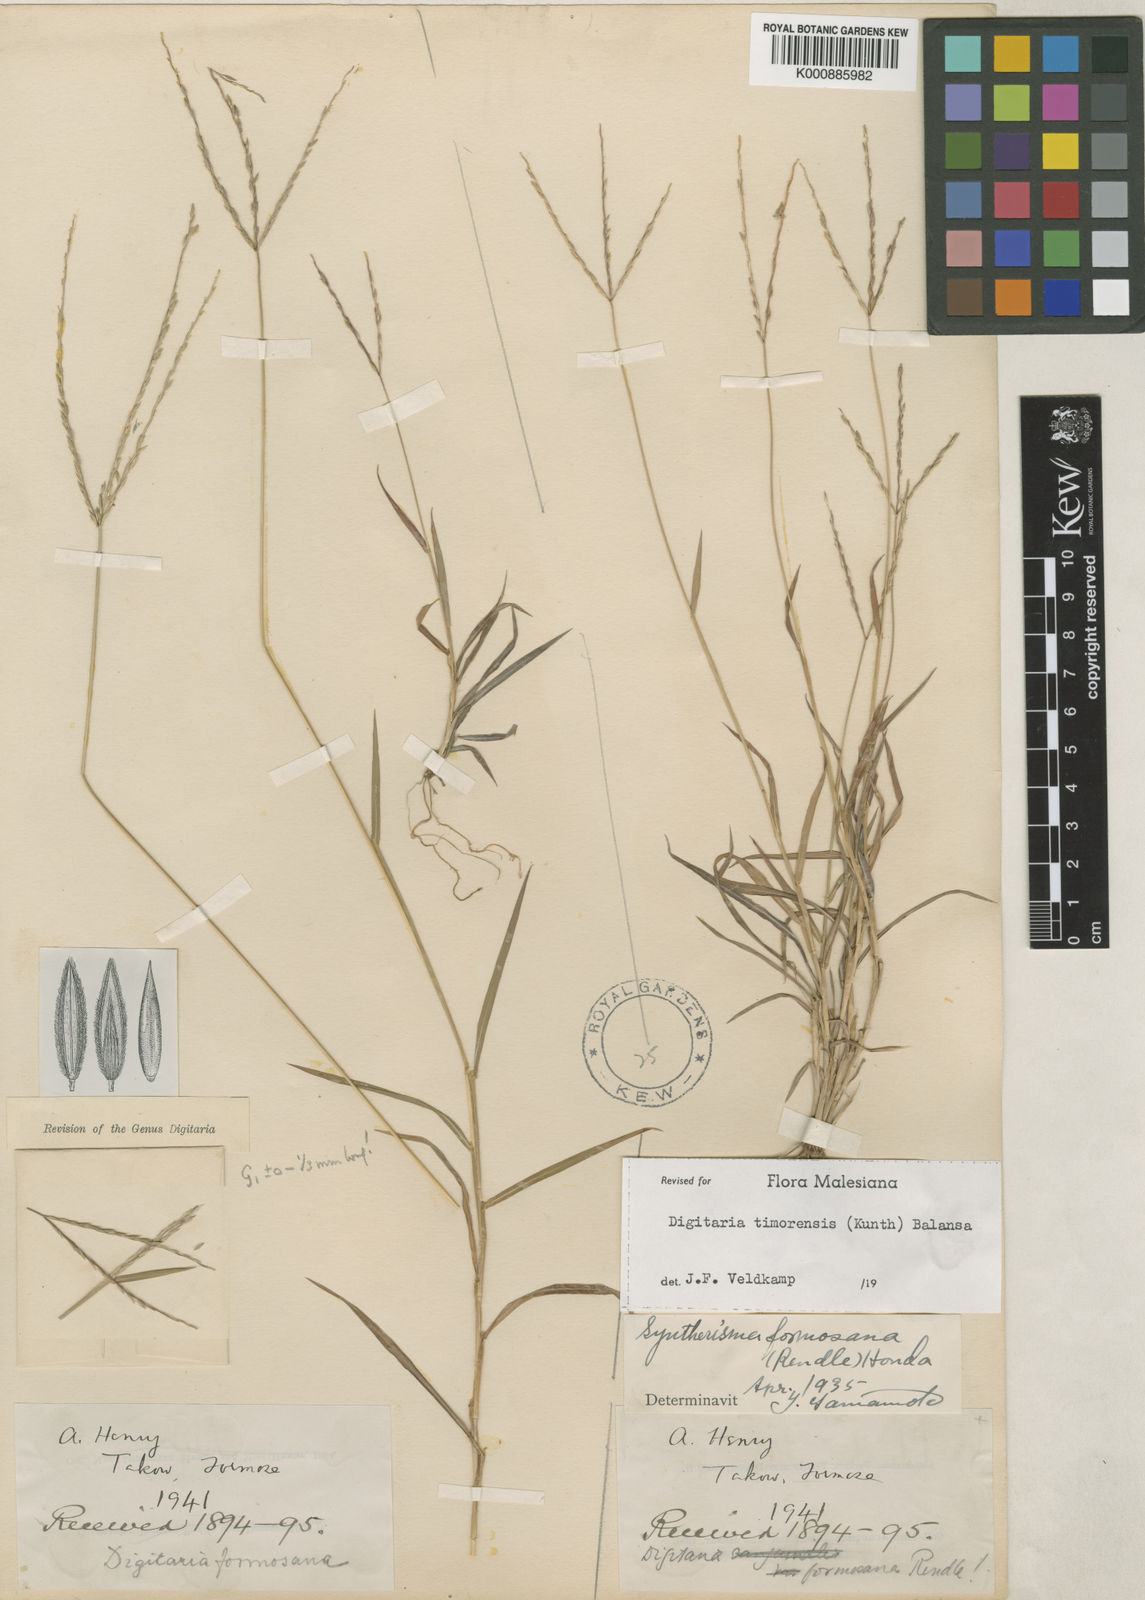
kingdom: Plantae
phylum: Tracheophyta
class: Liliopsida
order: Poales
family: Poaceae
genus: Digitaria
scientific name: Digitaria radicosa
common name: Trailing crabgrass
